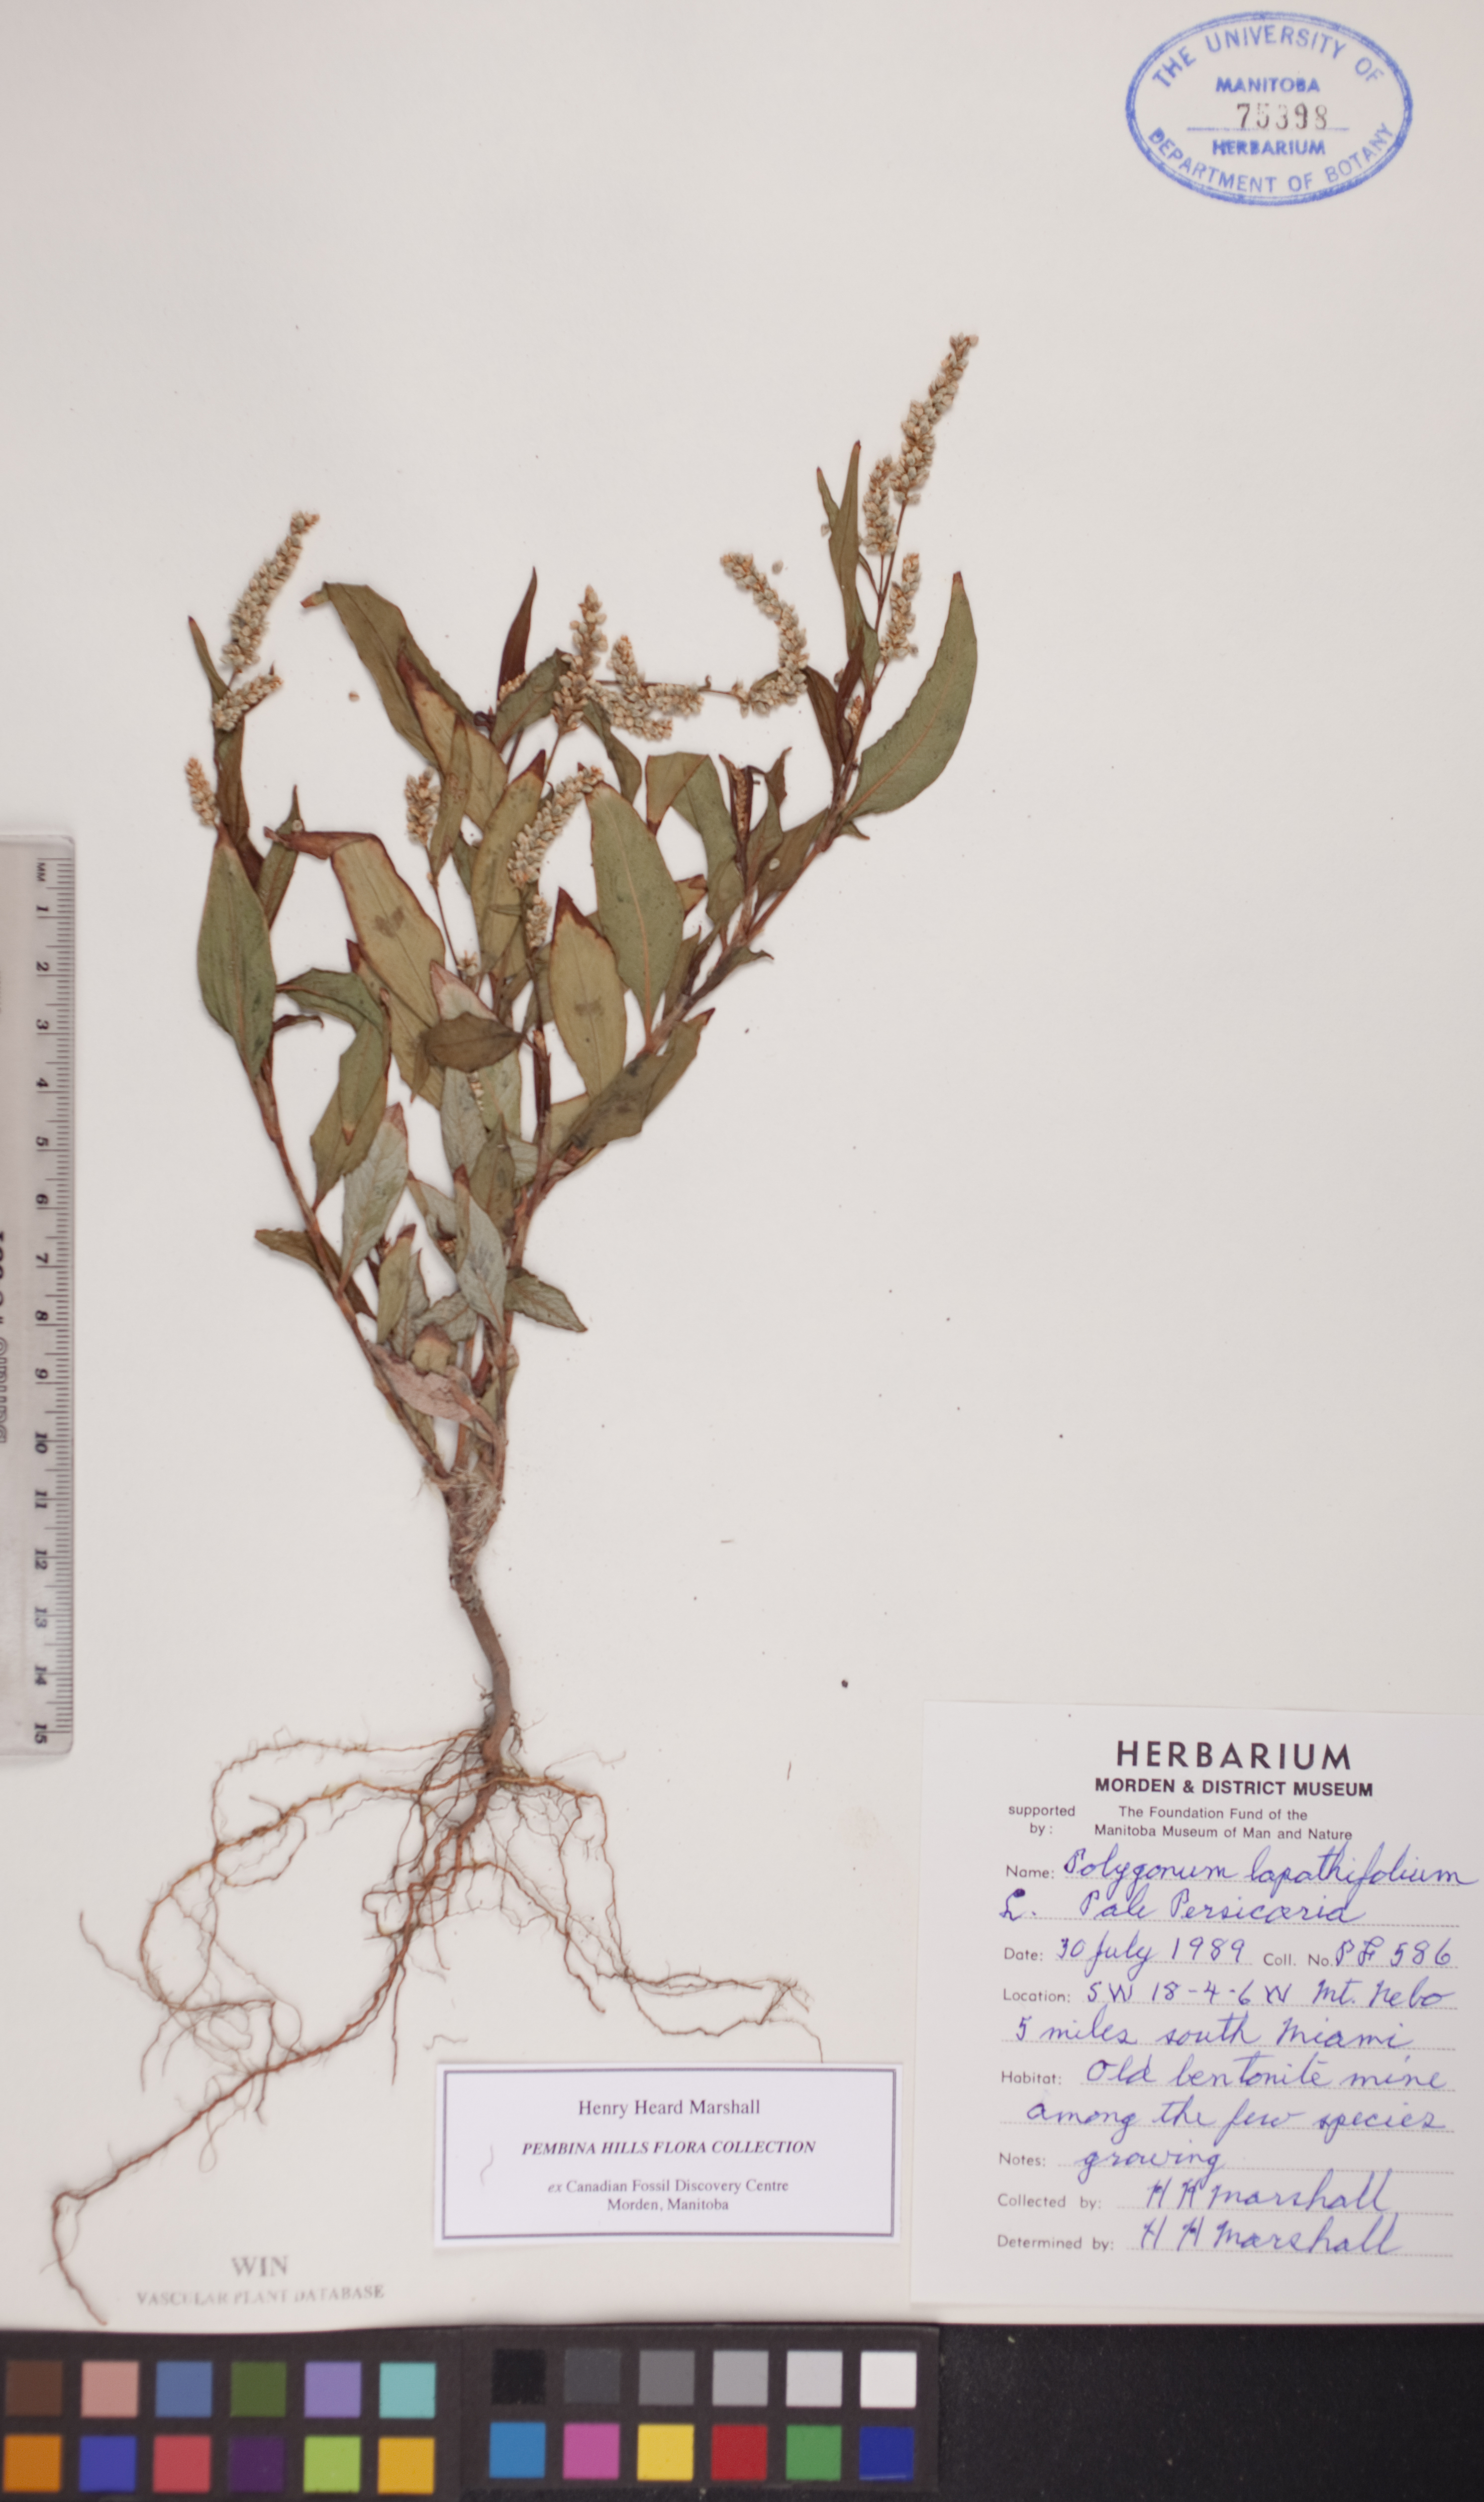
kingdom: Plantae
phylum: Tracheophyta
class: Magnoliopsida
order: Caryophyllales
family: Polygonaceae
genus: Persicaria
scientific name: Persicaria lapathifolia
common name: Curlytop knotweed
